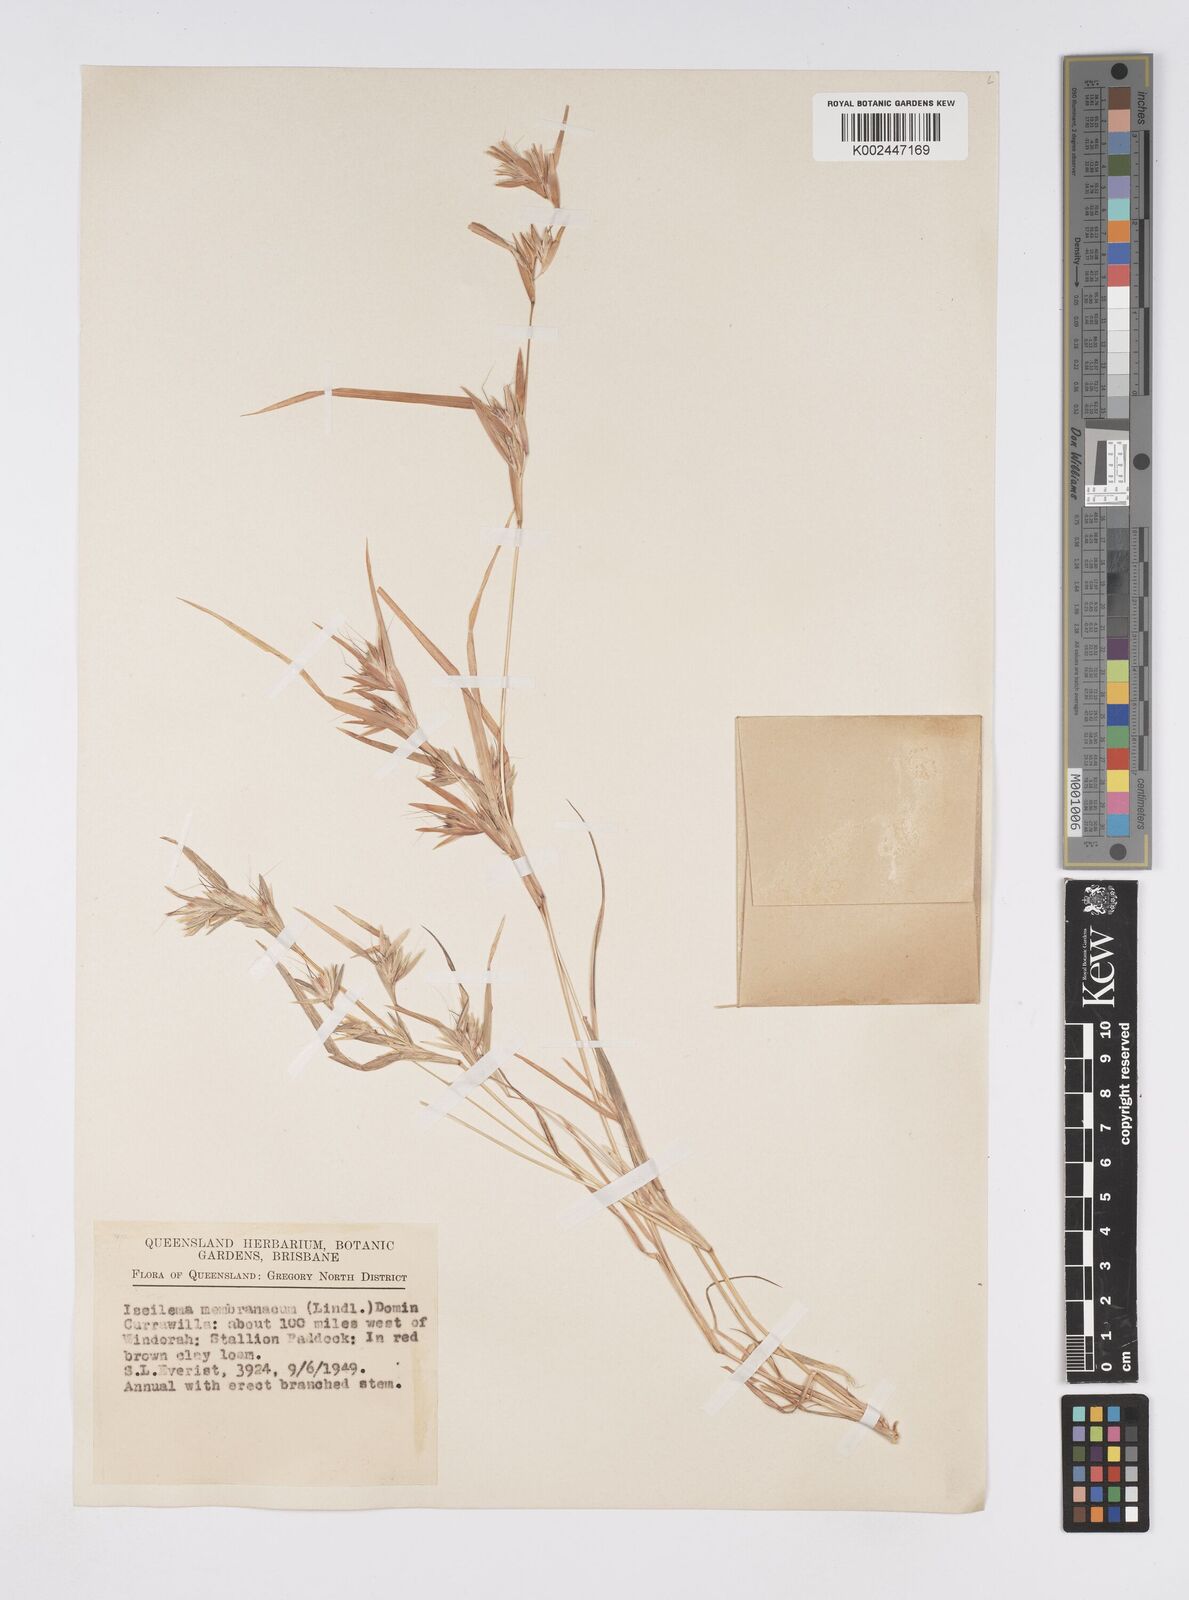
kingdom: Plantae
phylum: Tracheophyta
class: Liliopsida
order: Poales
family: Poaceae
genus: Iseilema
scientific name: Iseilema membranaceum
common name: Small flinders grass
